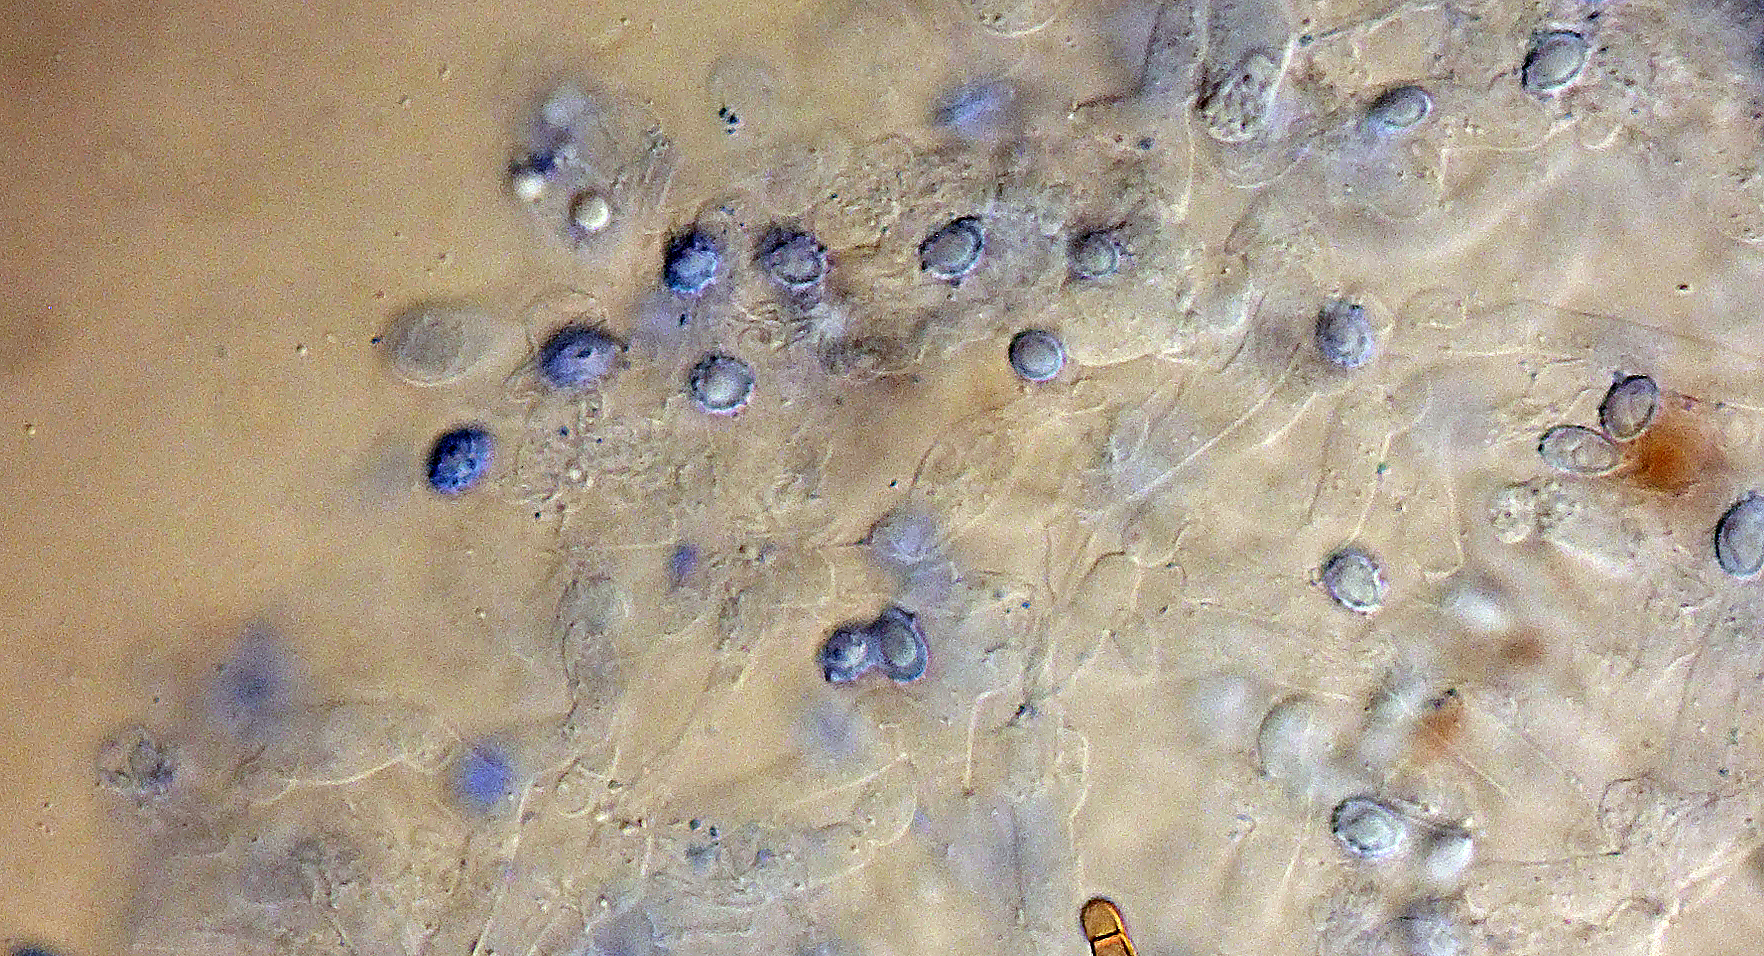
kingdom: Fungi
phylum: Basidiomycota
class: Agaricomycetes
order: Agaricales
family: Stephanosporaceae
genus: Lindtneria
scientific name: Lindtneria
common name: citrushinde
